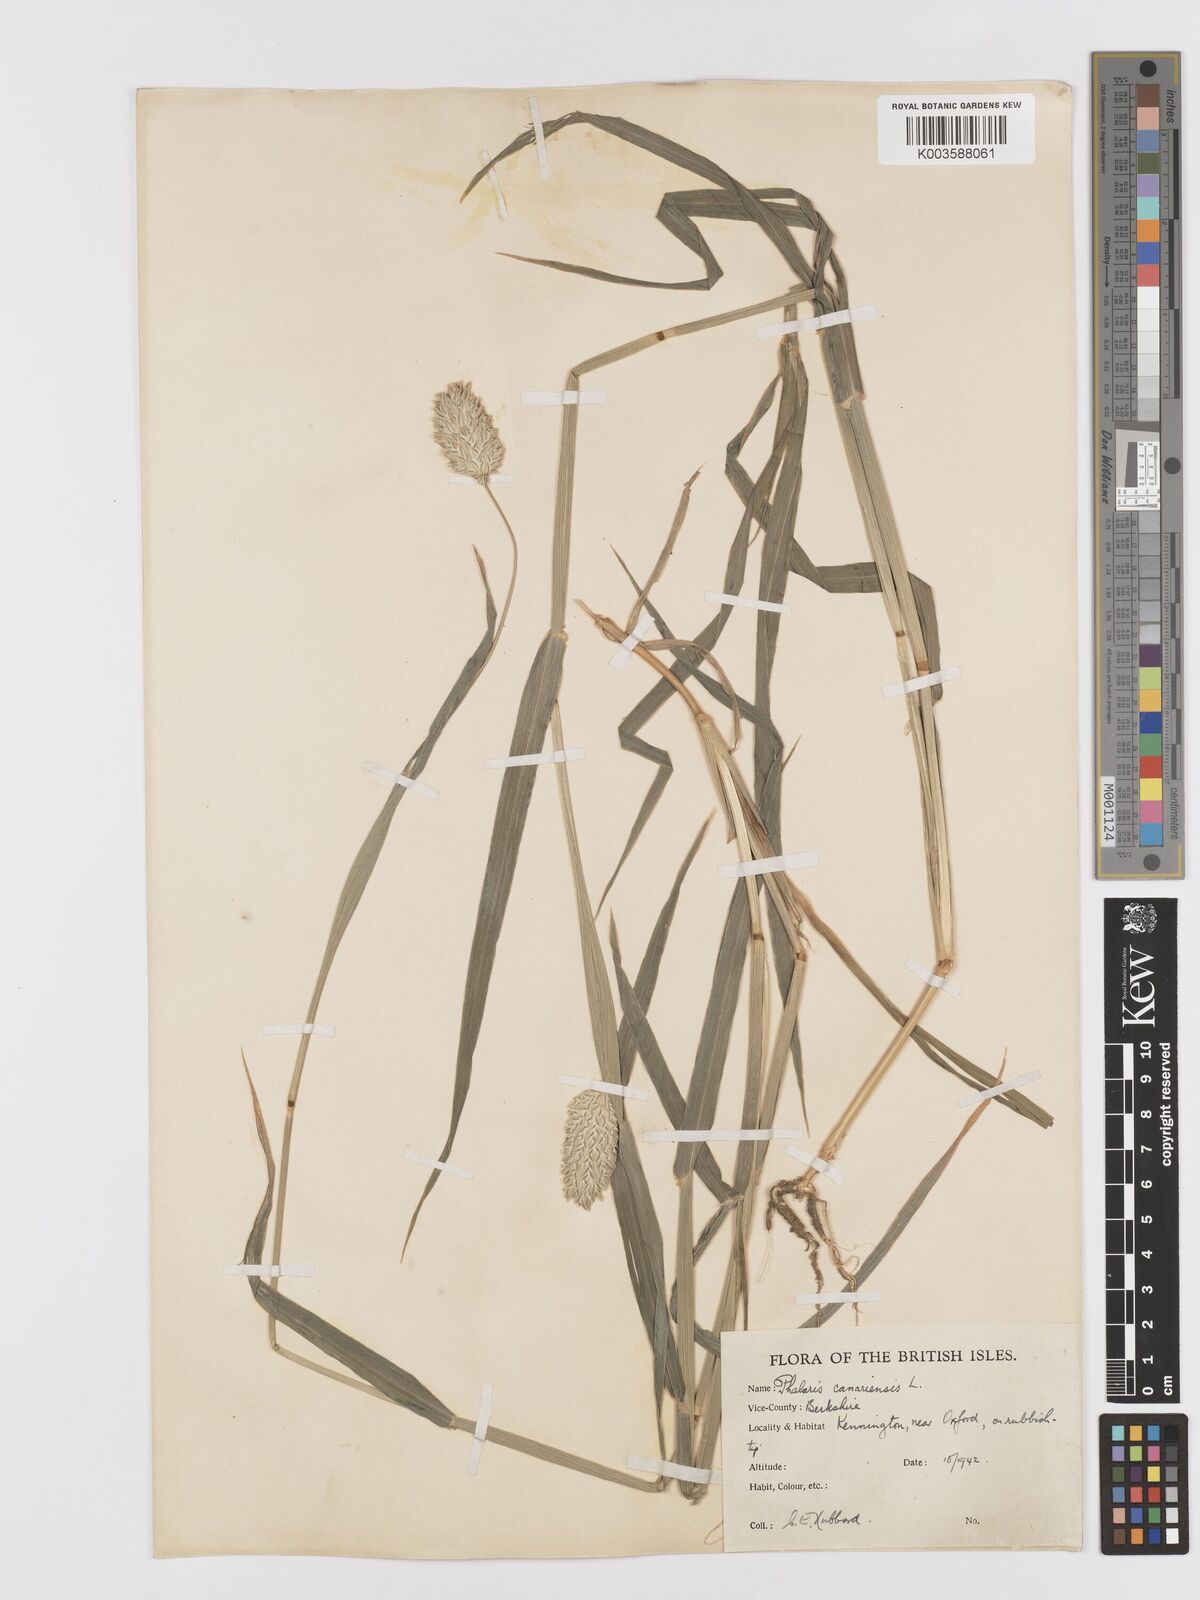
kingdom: Plantae
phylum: Tracheophyta
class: Liliopsida
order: Poales
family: Poaceae
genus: Phalaris
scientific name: Phalaris canariensis
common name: Annual canarygrass
